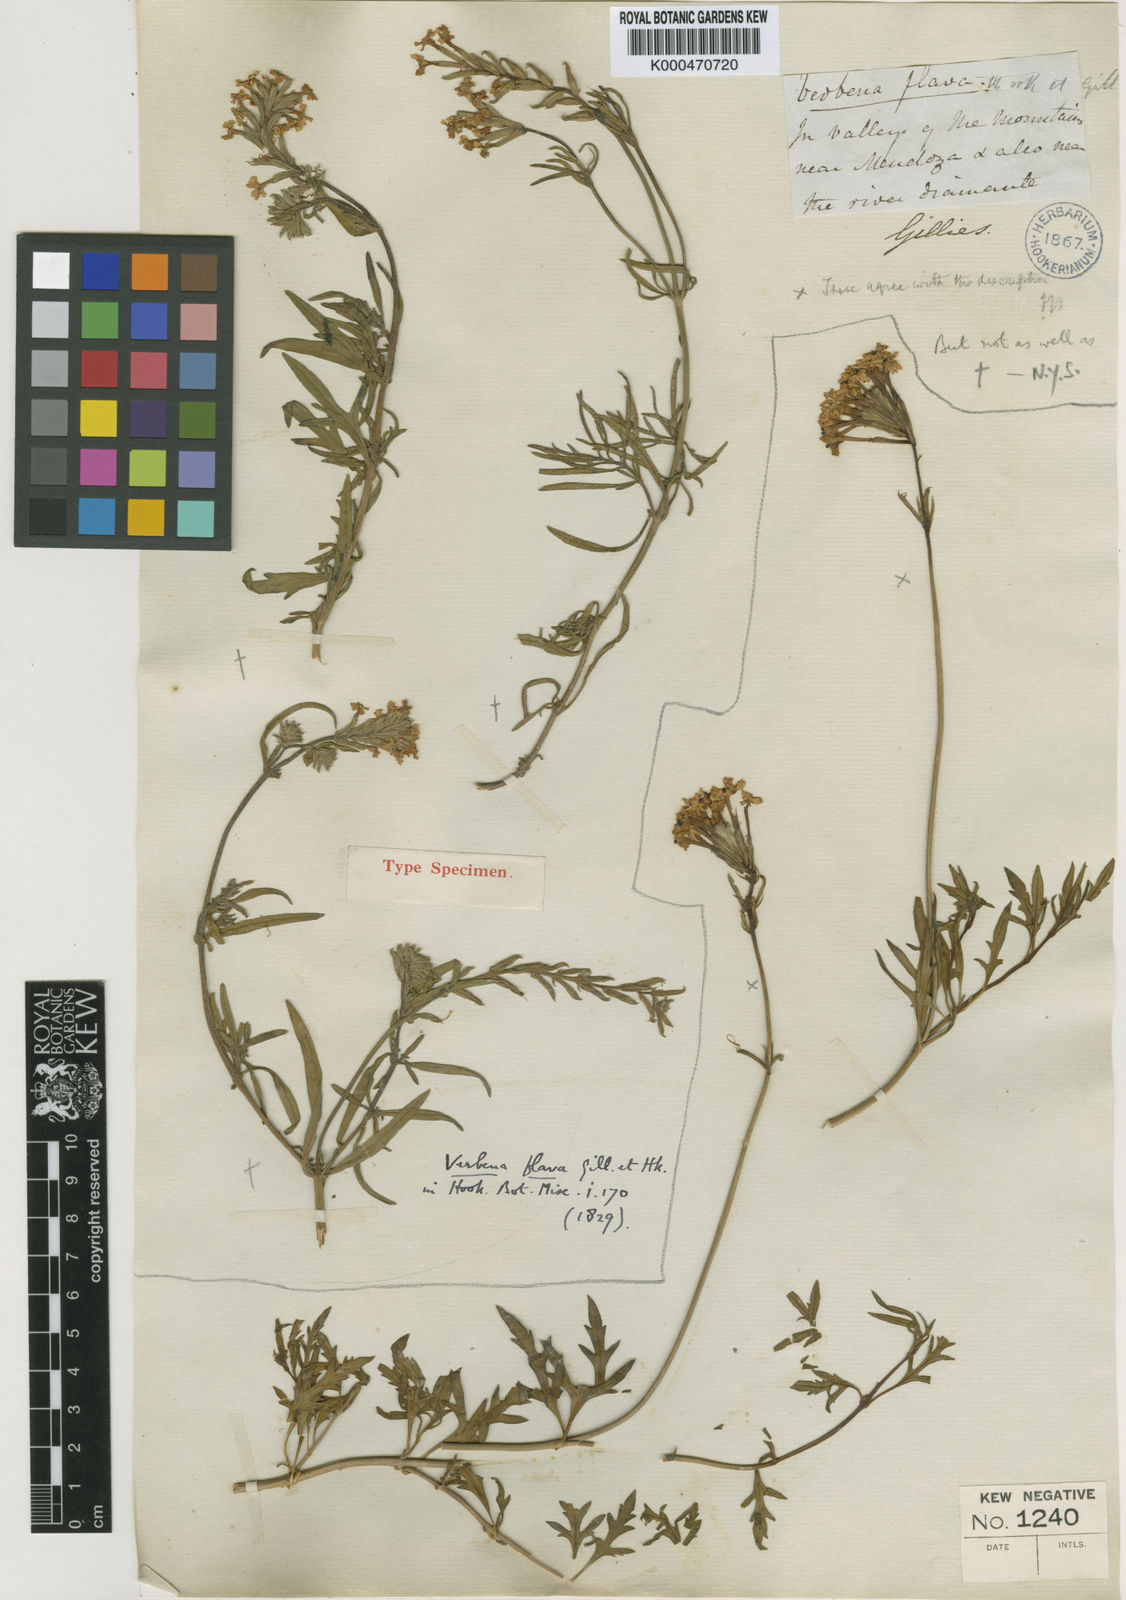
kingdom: Plantae
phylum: Tracheophyta
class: Magnoliopsida
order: Lamiales
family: Verbenaceae
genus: Verbena
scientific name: Verbena flava
